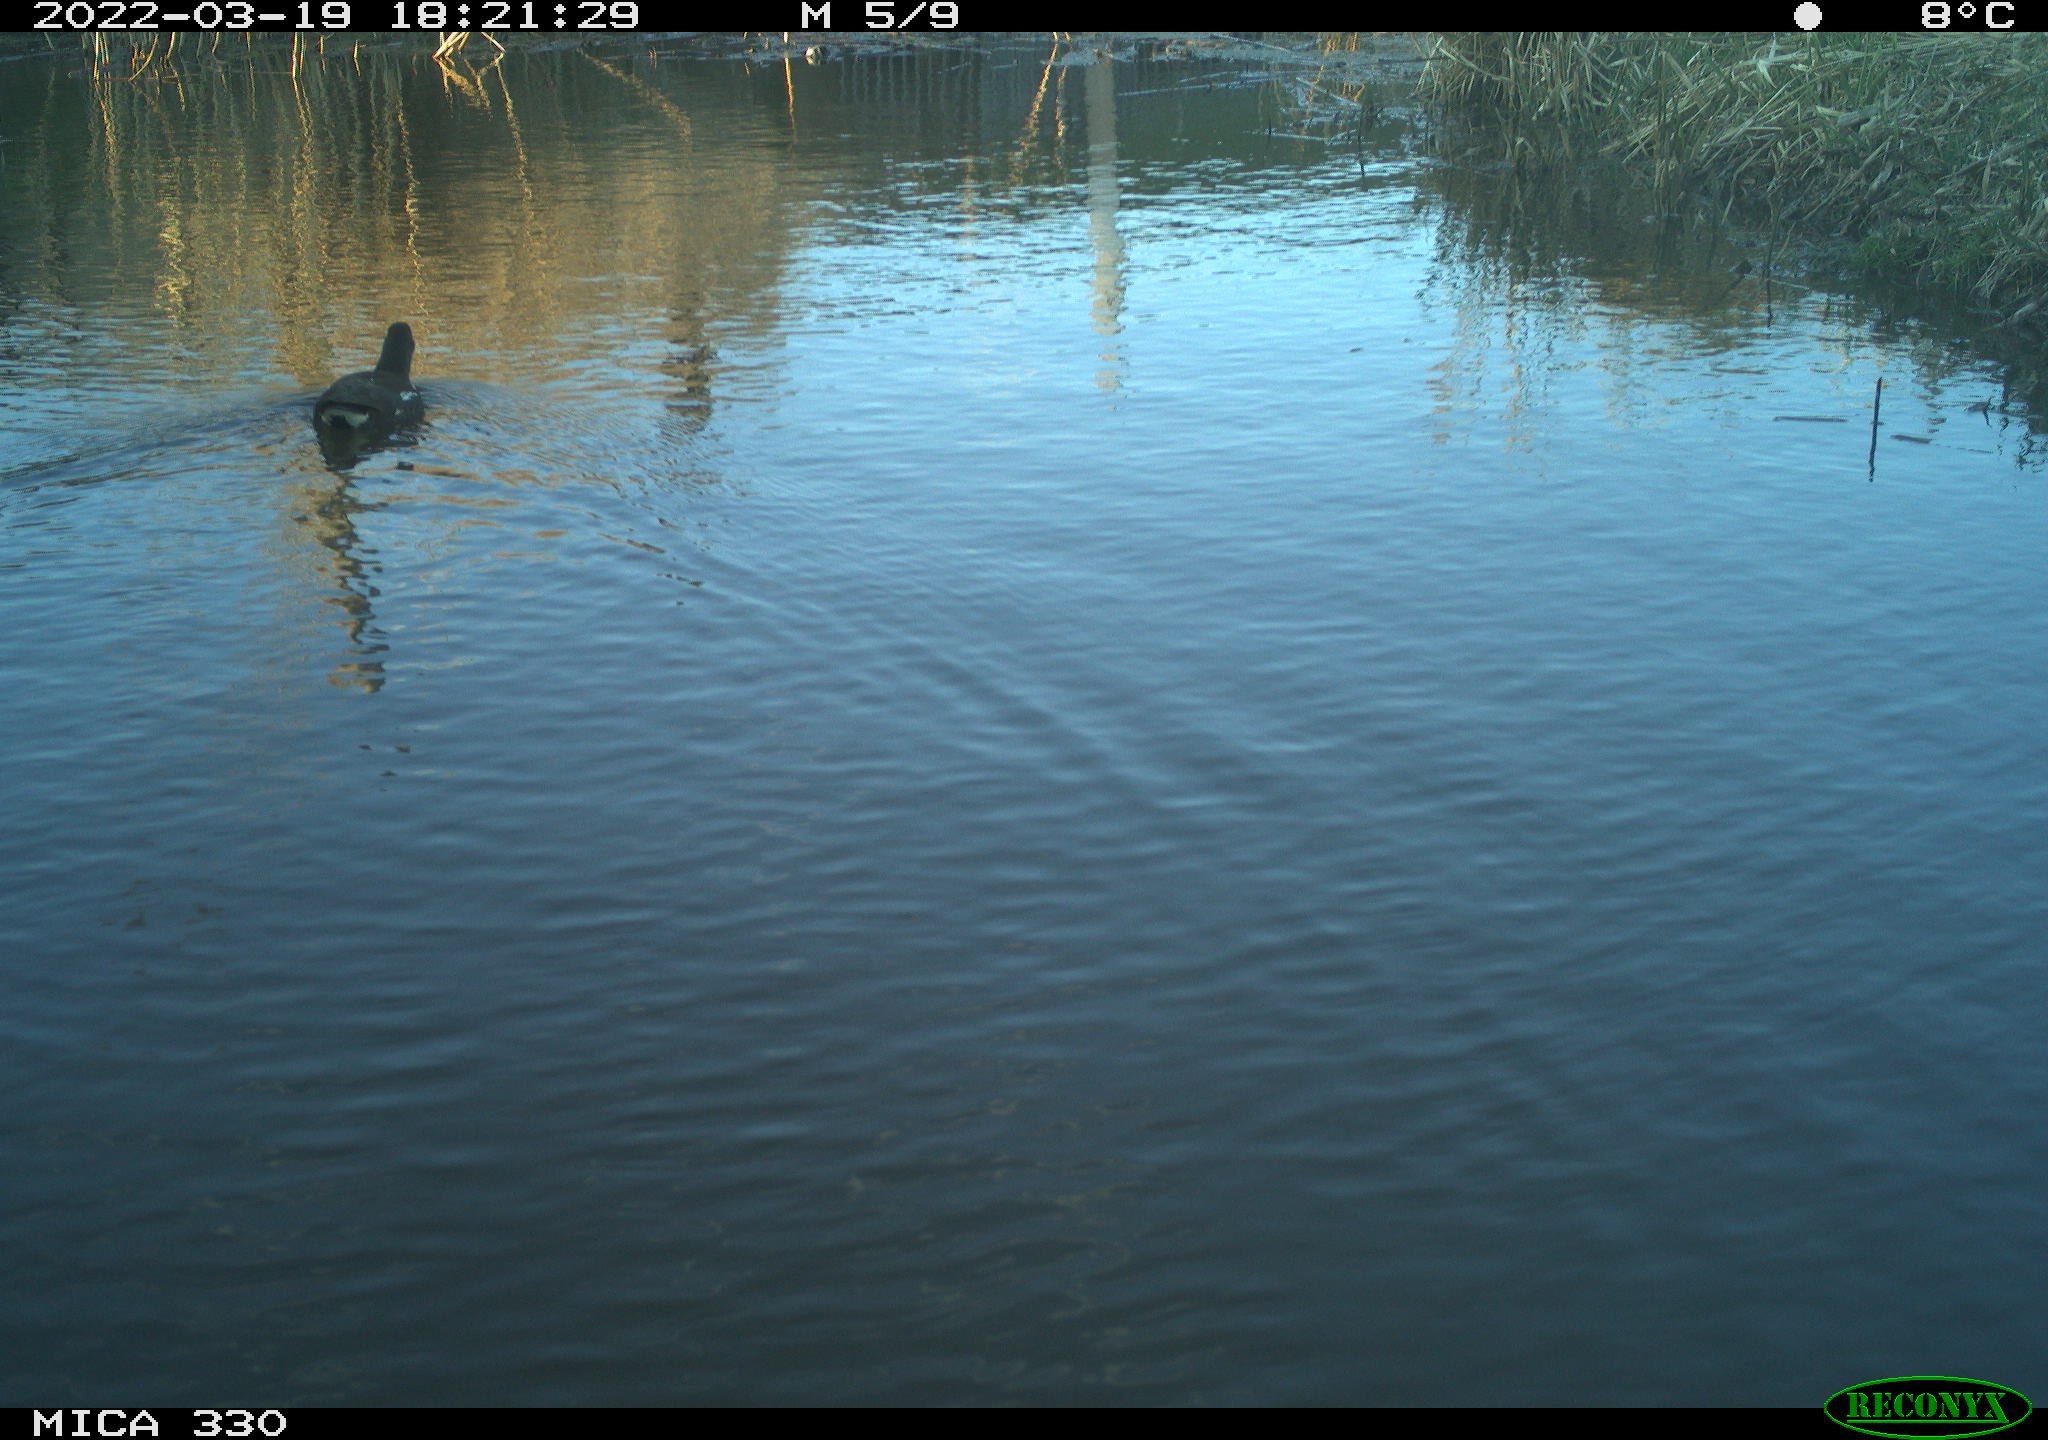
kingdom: Animalia
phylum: Chordata
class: Aves
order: Gruiformes
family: Rallidae
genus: Gallinula
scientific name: Gallinula chloropus
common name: Common moorhen
